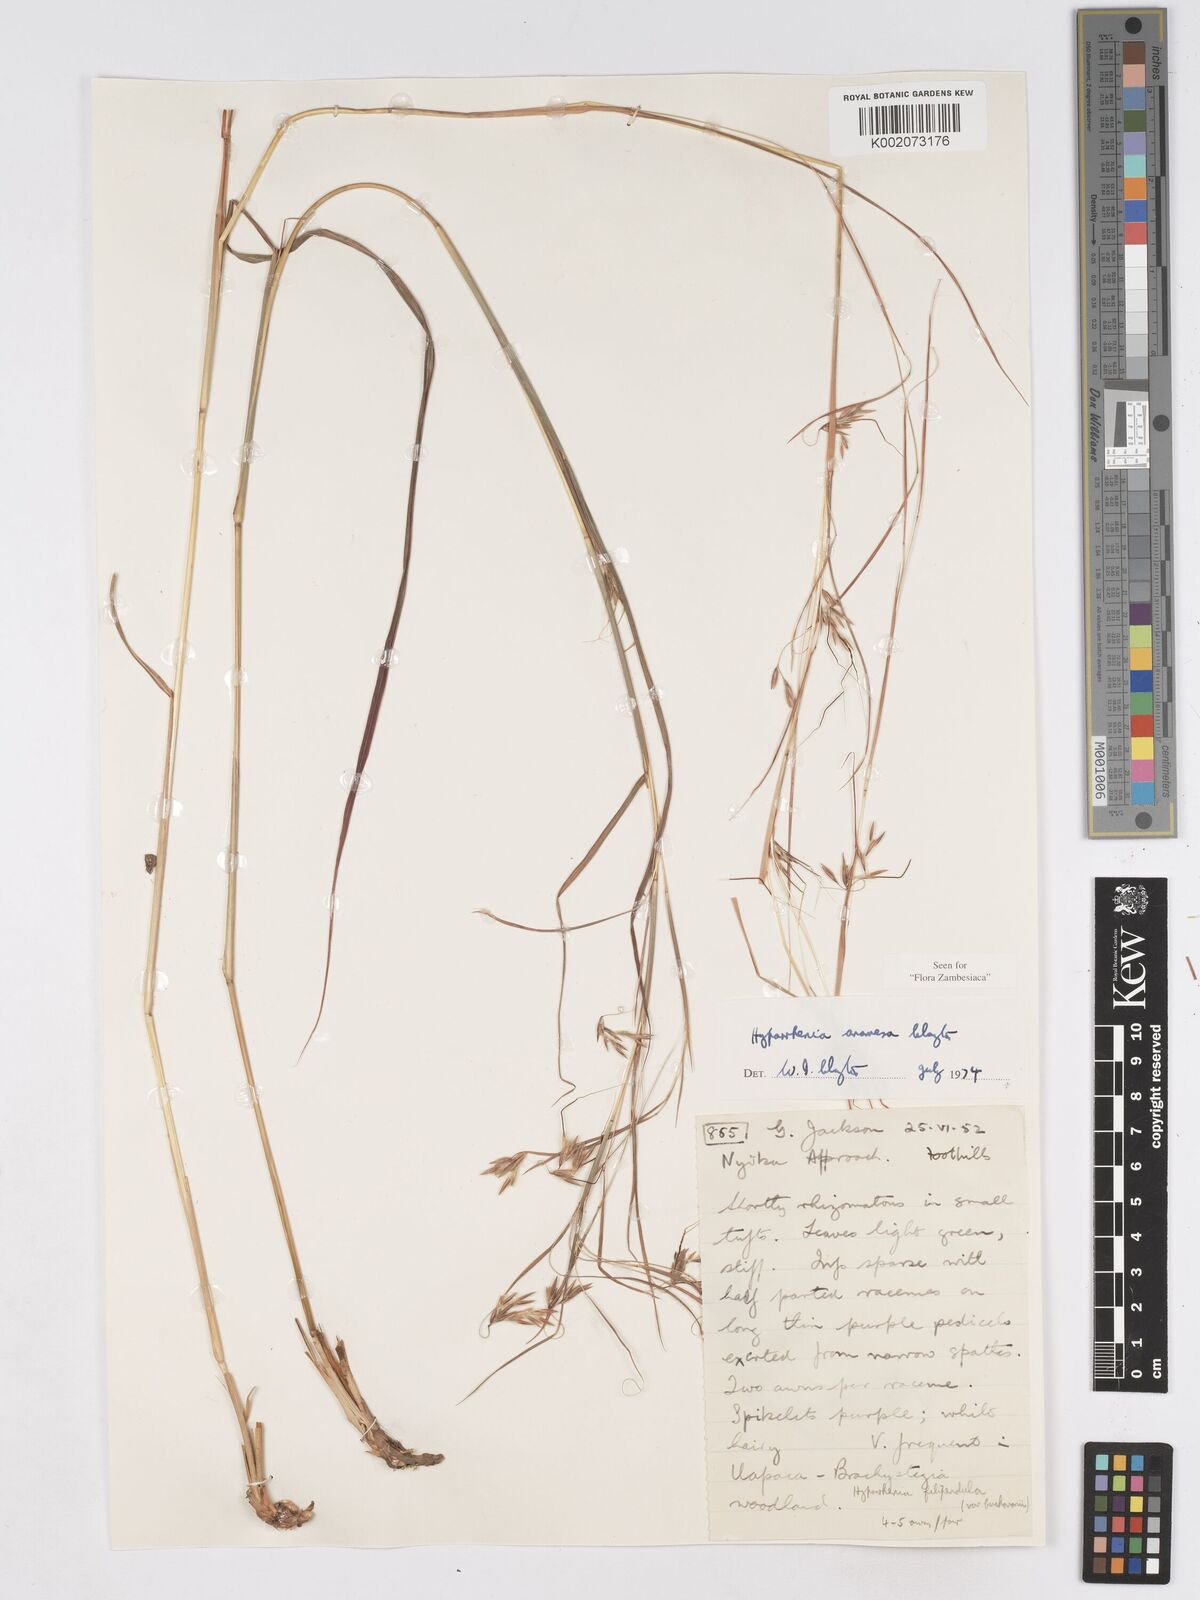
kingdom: Plantae
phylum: Tracheophyta
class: Liliopsida
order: Poales
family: Poaceae
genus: Hyparrhenia
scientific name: Hyparrhenia anamesa
